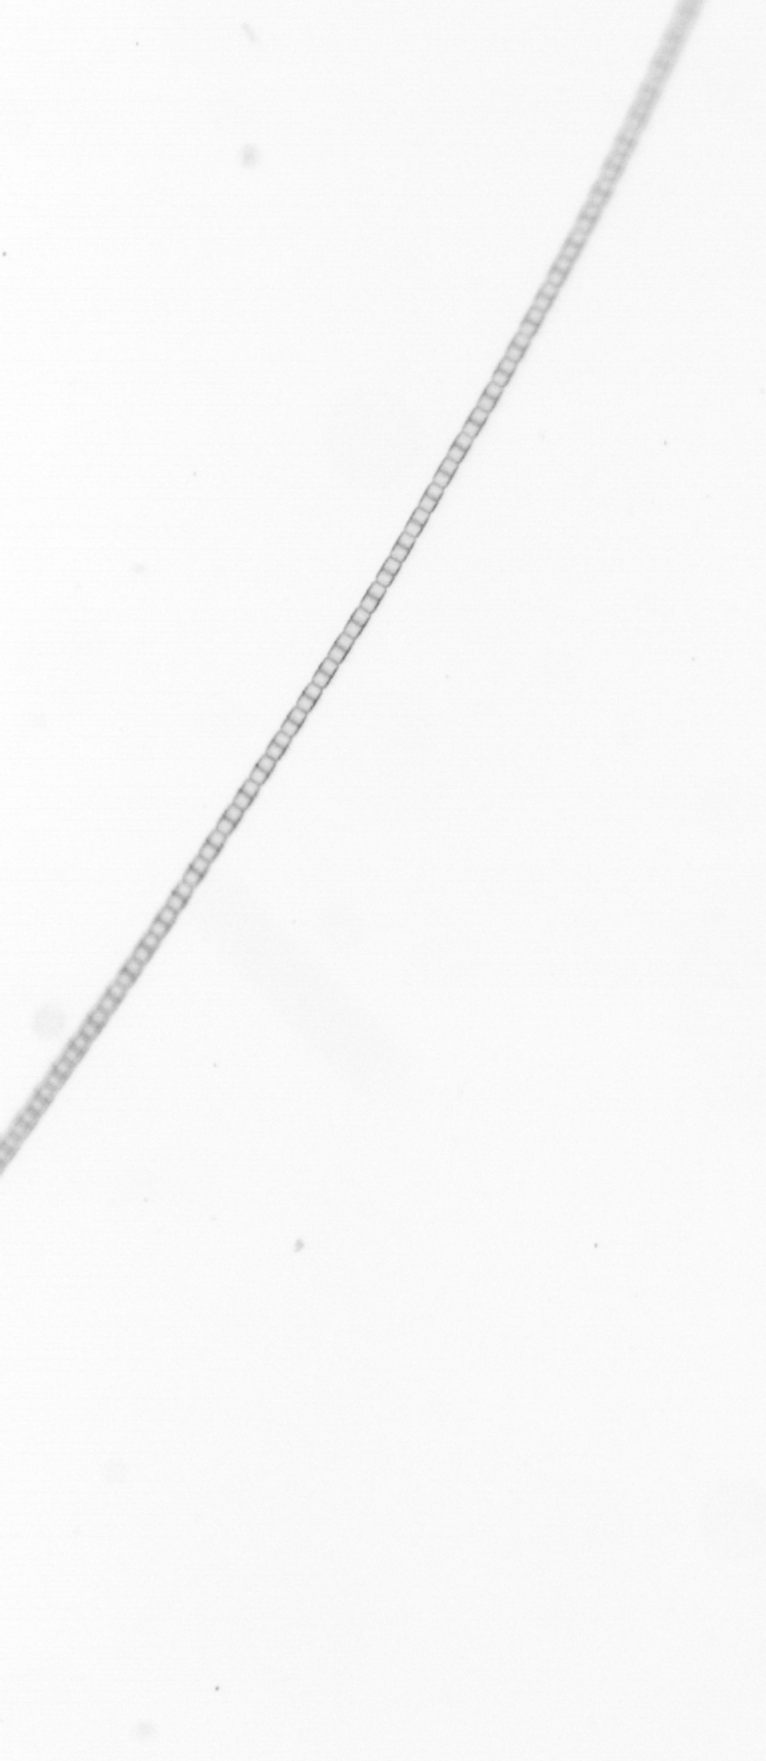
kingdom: Chromista
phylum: Ochrophyta
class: Bacillariophyceae
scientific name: Bacillariophyceae
